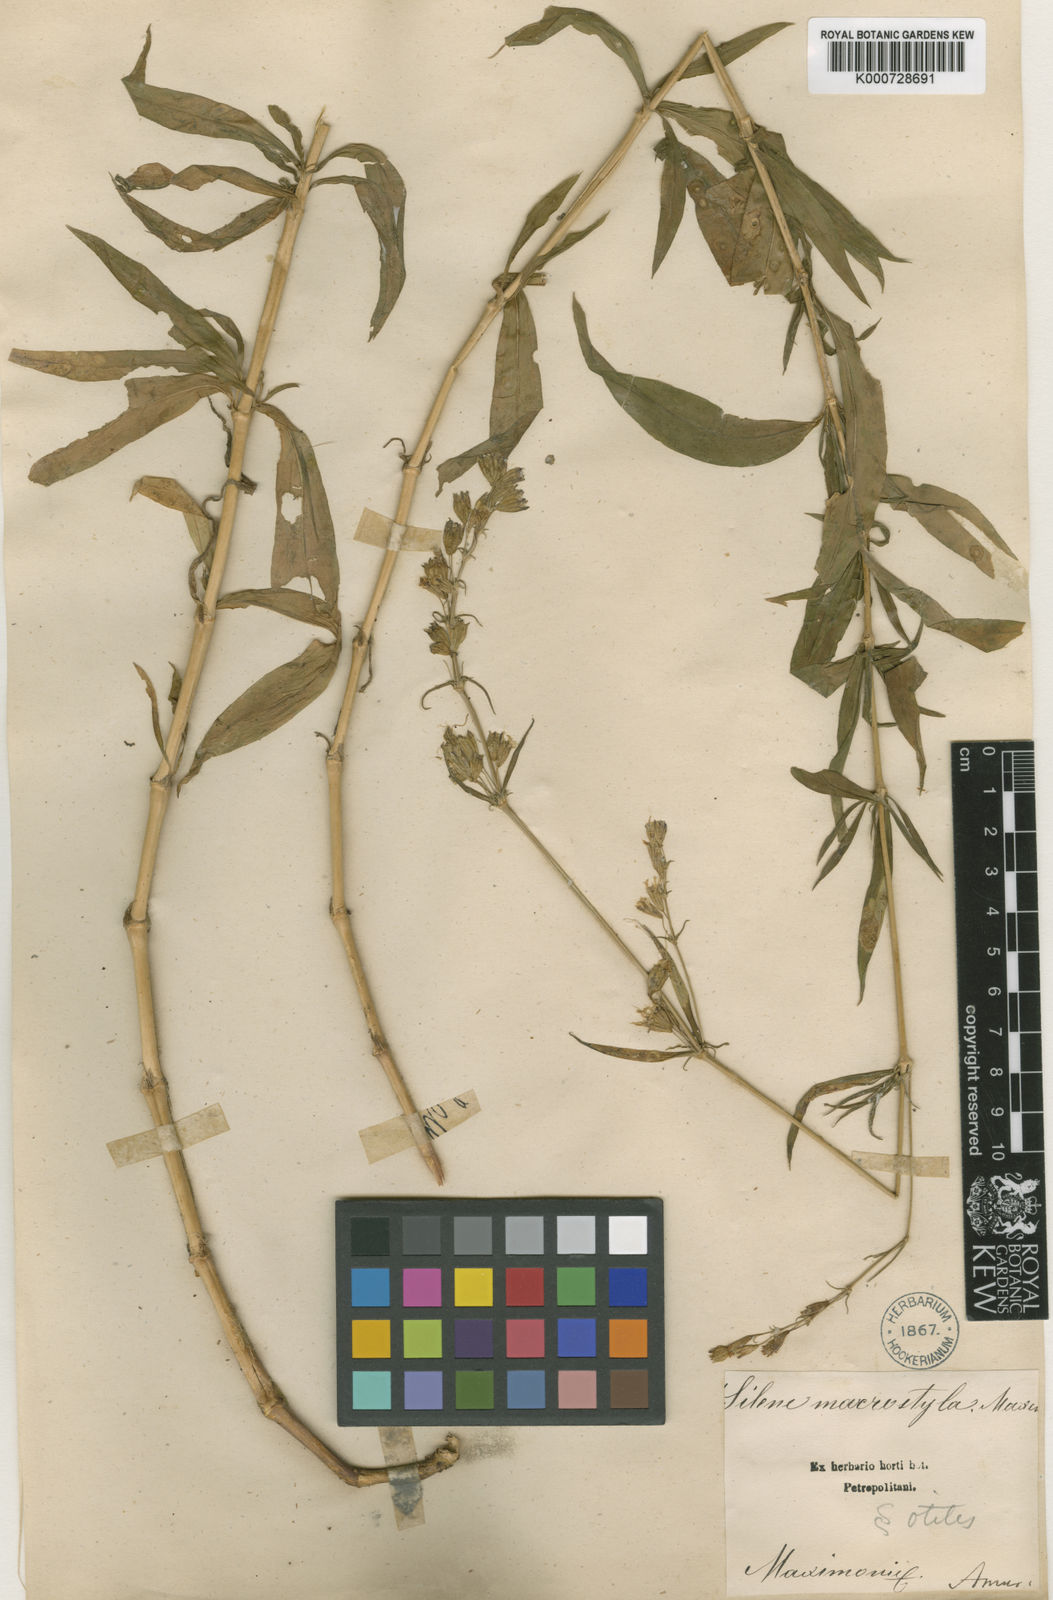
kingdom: Plantae
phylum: Tracheophyta
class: Magnoliopsida
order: Caryophyllales
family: Caryophyllaceae
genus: Silene
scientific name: Silene macrostyla
